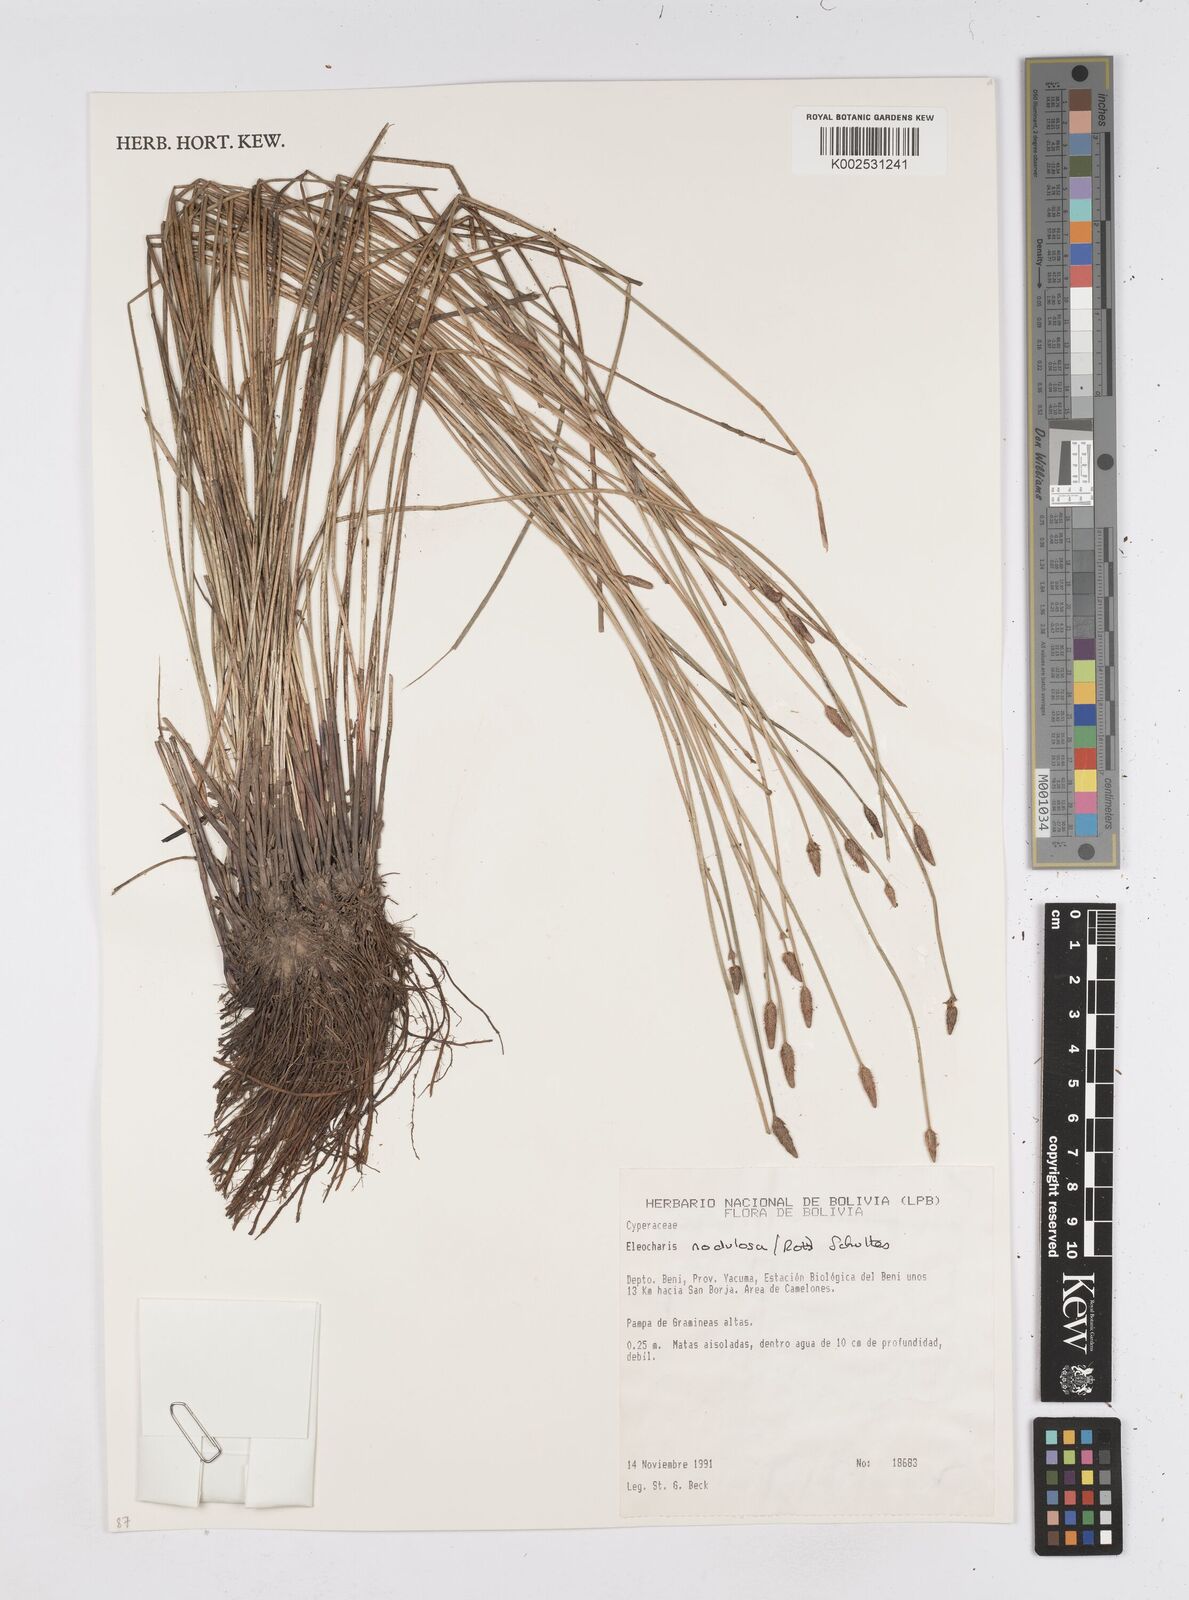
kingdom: Plantae
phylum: Tracheophyta
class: Liliopsida
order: Poales
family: Cyperaceae
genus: Eleocharis
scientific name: Eleocharis montana
